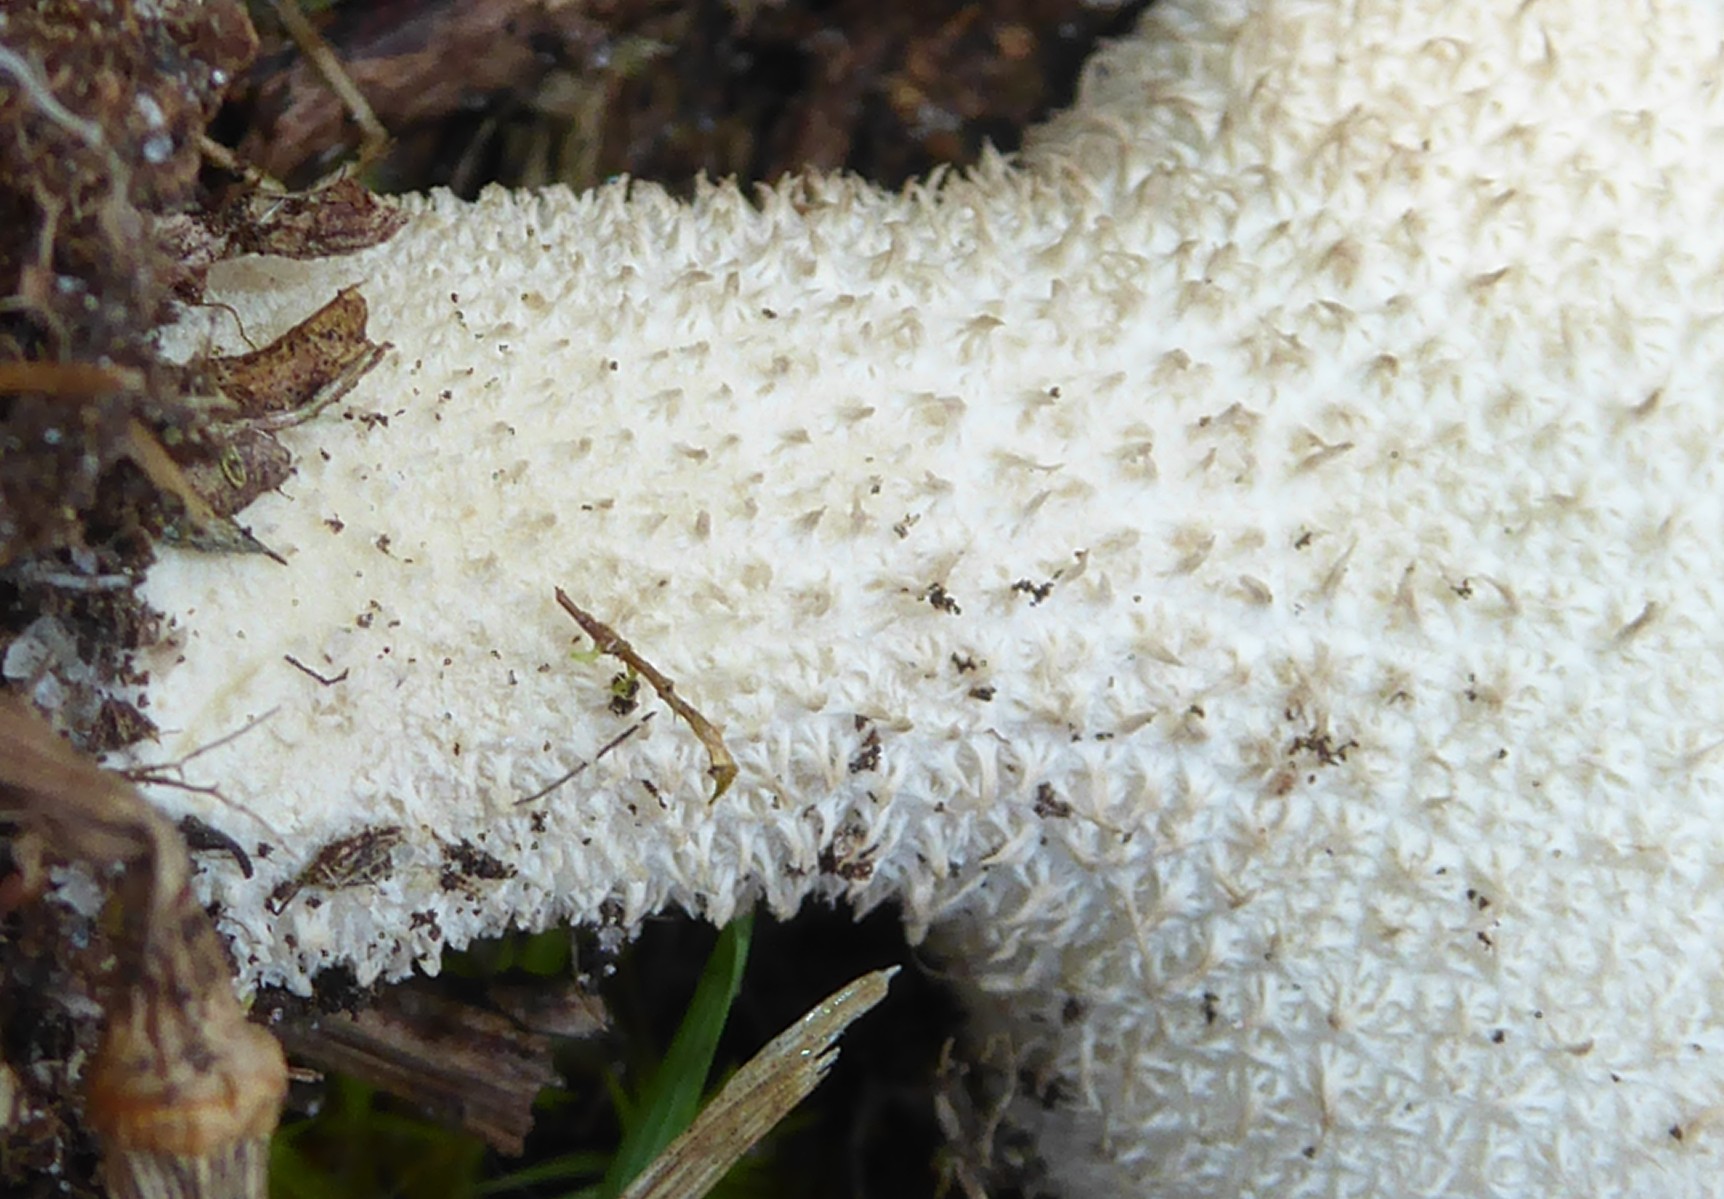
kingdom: Fungi
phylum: Basidiomycota
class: Agaricomycetes
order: Agaricales
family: Lycoperdaceae
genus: Lycoperdon
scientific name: Lycoperdon excipuliforme
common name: højstokket støvbold
